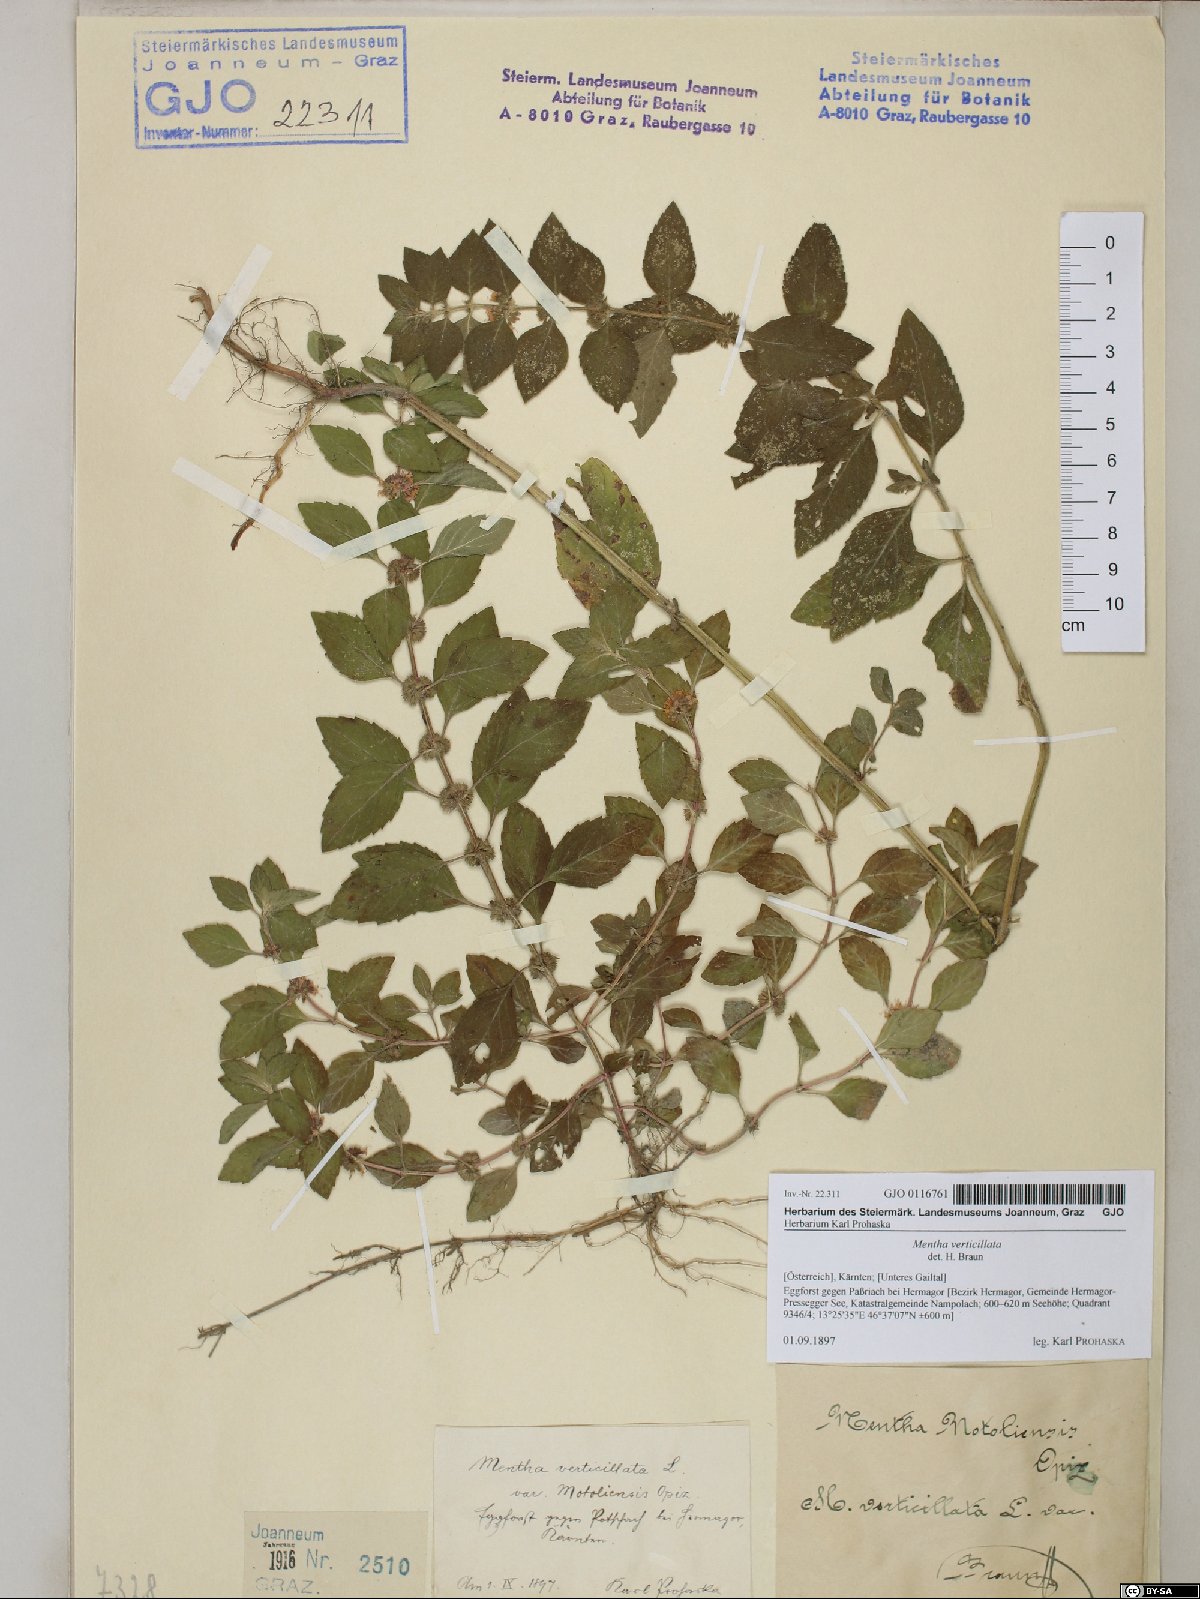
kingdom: Plantae
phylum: Tracheophyta
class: Magnoliopsida
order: Lamiales
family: Lamiaceae
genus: Mentha
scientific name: Mentha verticillata
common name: Mint
